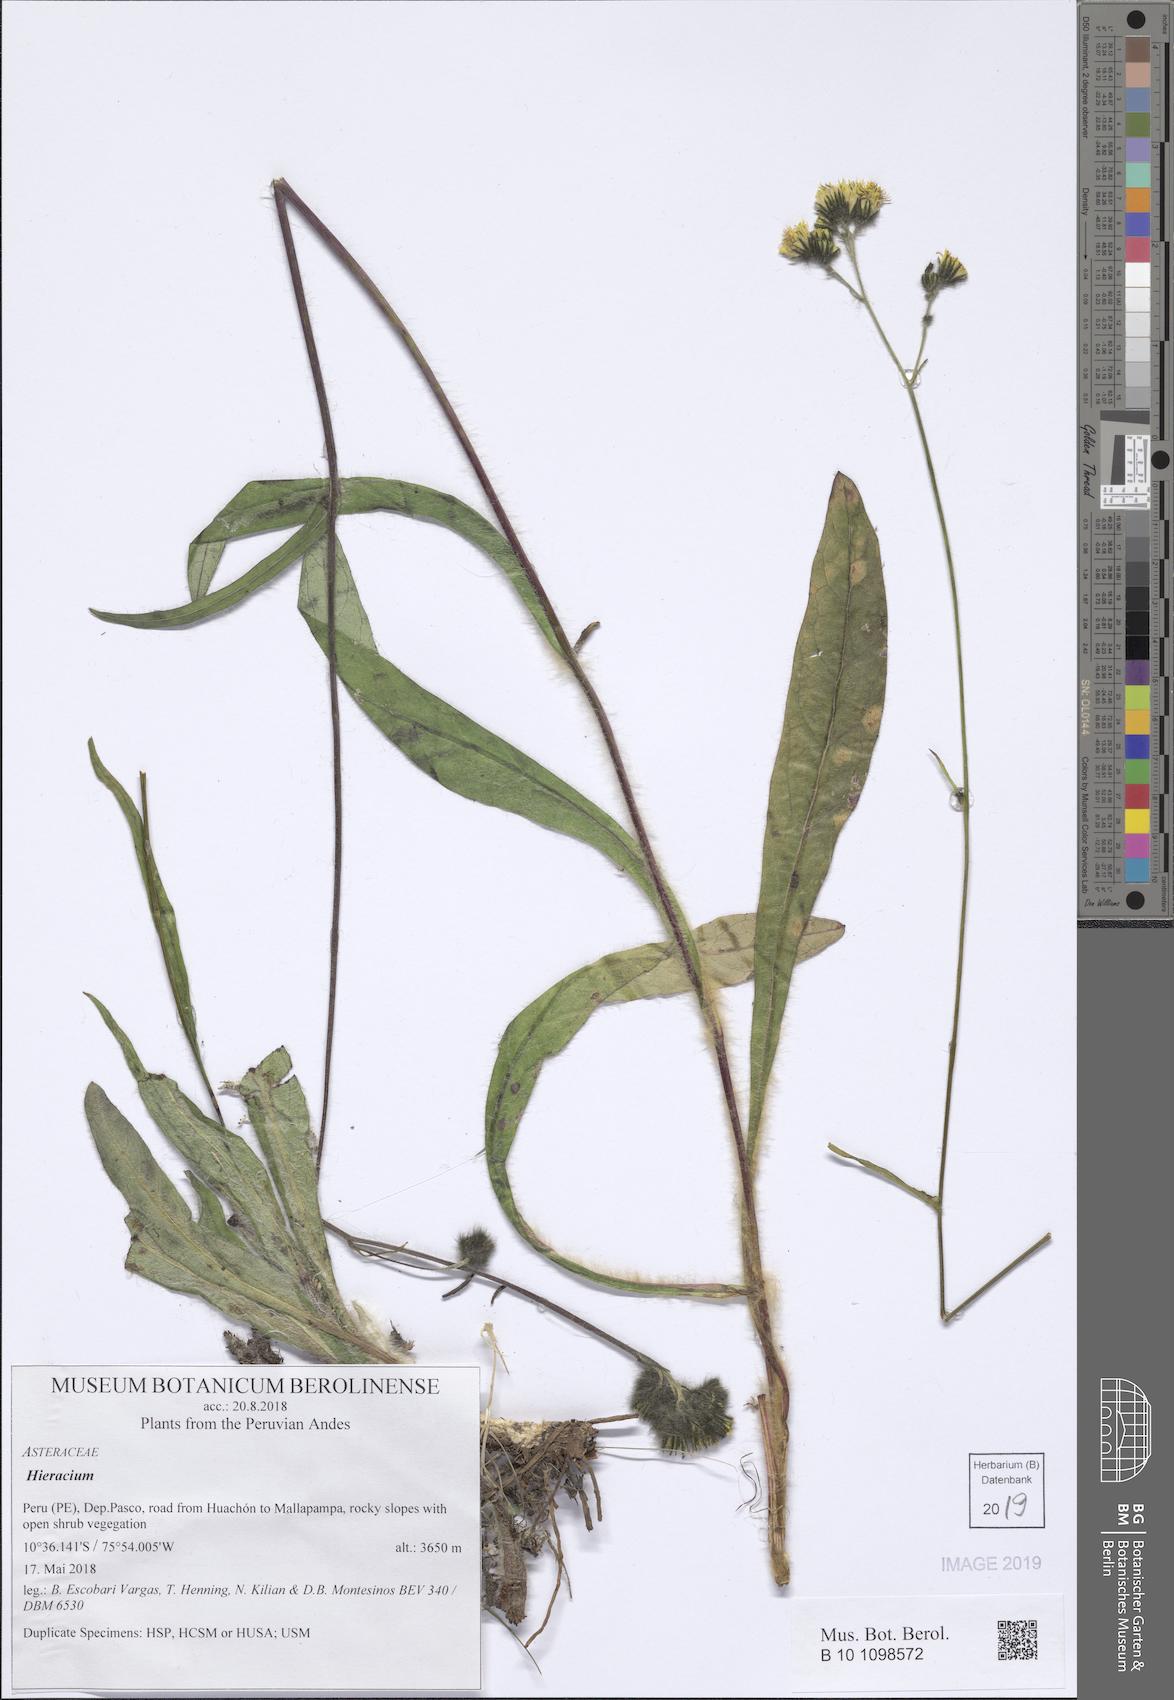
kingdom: Plantae
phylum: Tracheophyta
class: Magnoliopsida
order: Asterales
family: Asteraceae
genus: Hieracium
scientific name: Hieracium
